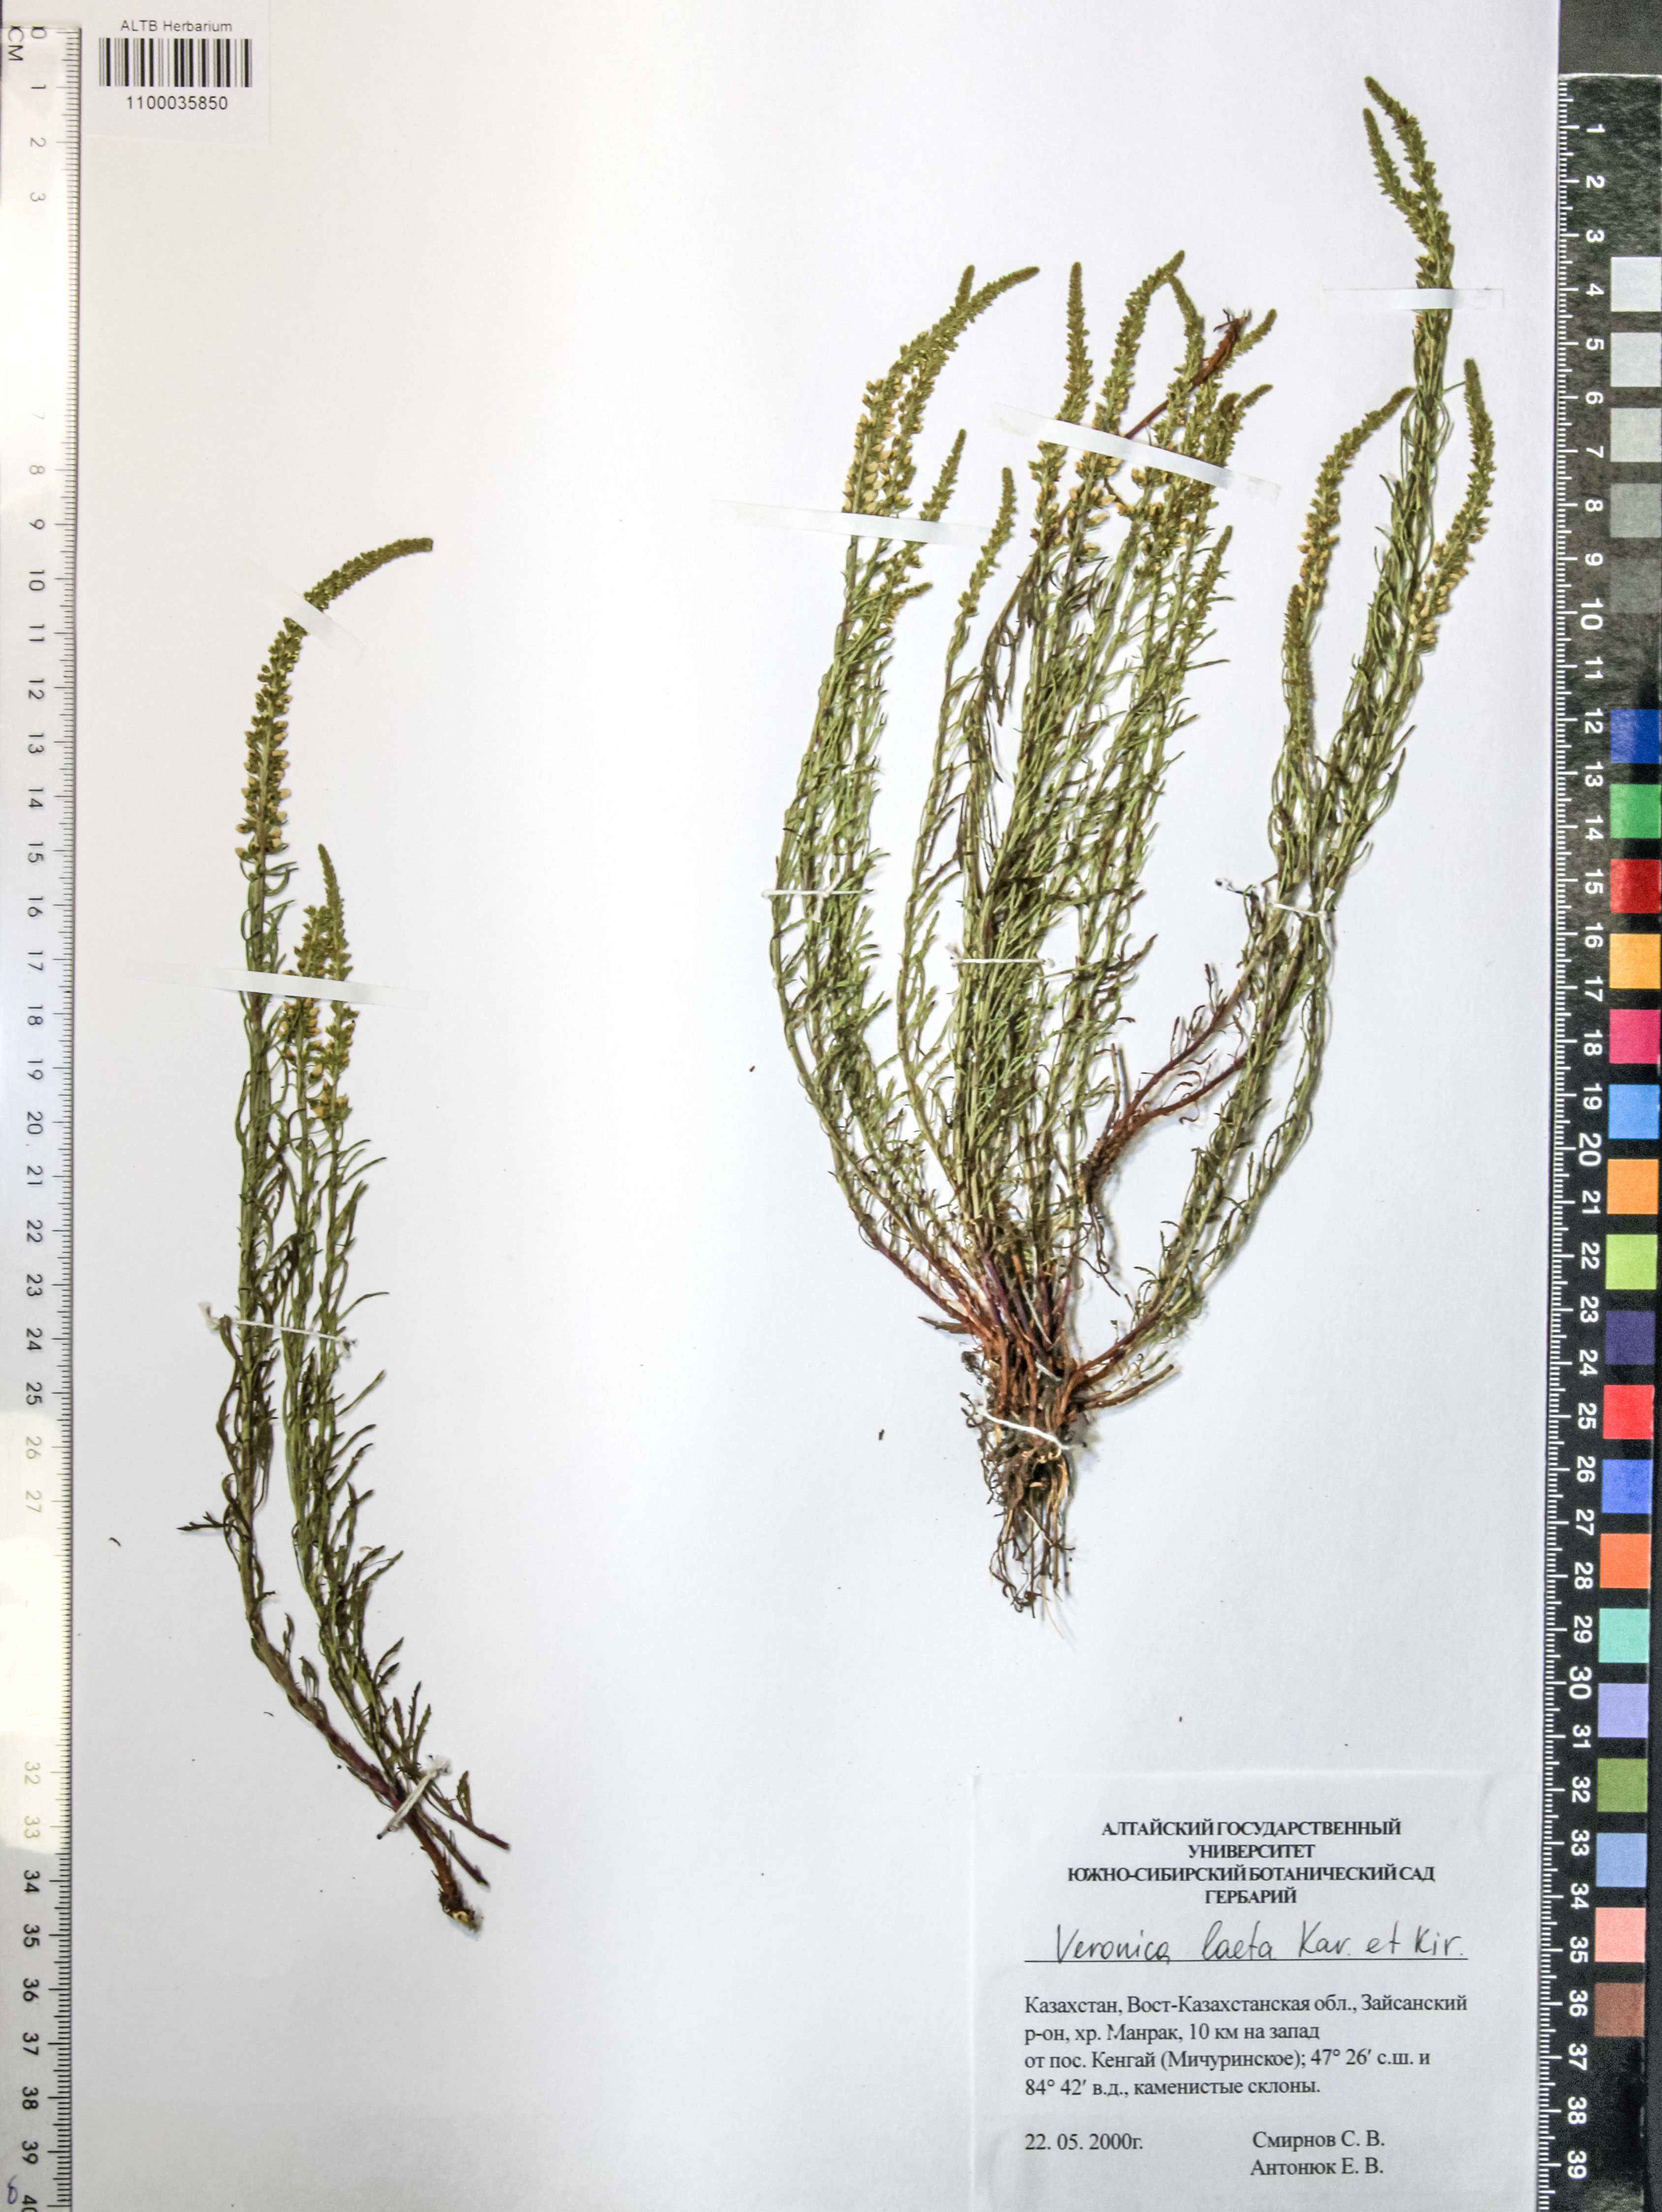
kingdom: Plantae
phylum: Tracheophyta
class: Magnoliopsida
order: Lamiales
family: Plantaginaceae
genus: Veronica
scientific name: Veronica laeta
